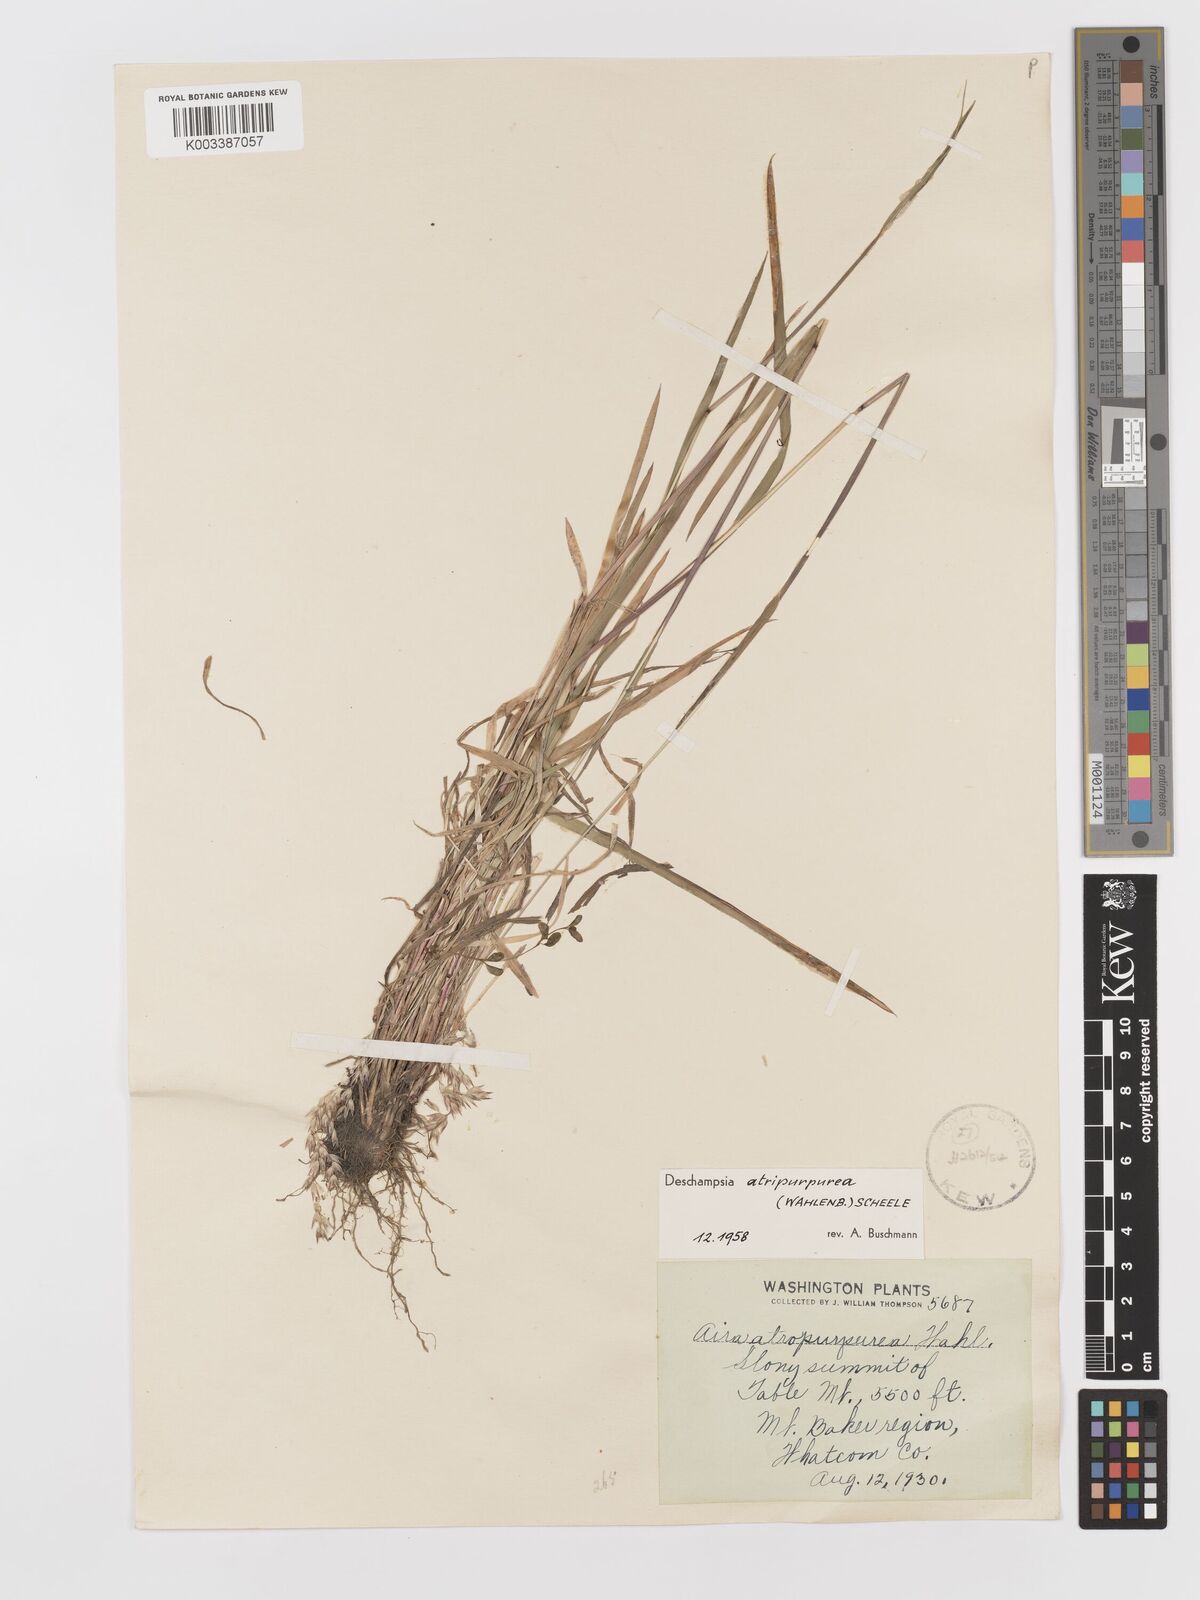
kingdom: Plantae
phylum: Tracheophyta
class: Liliopsida
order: Poales
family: Poaceae
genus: Vahlodea
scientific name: Vahlodea atropurpurea
